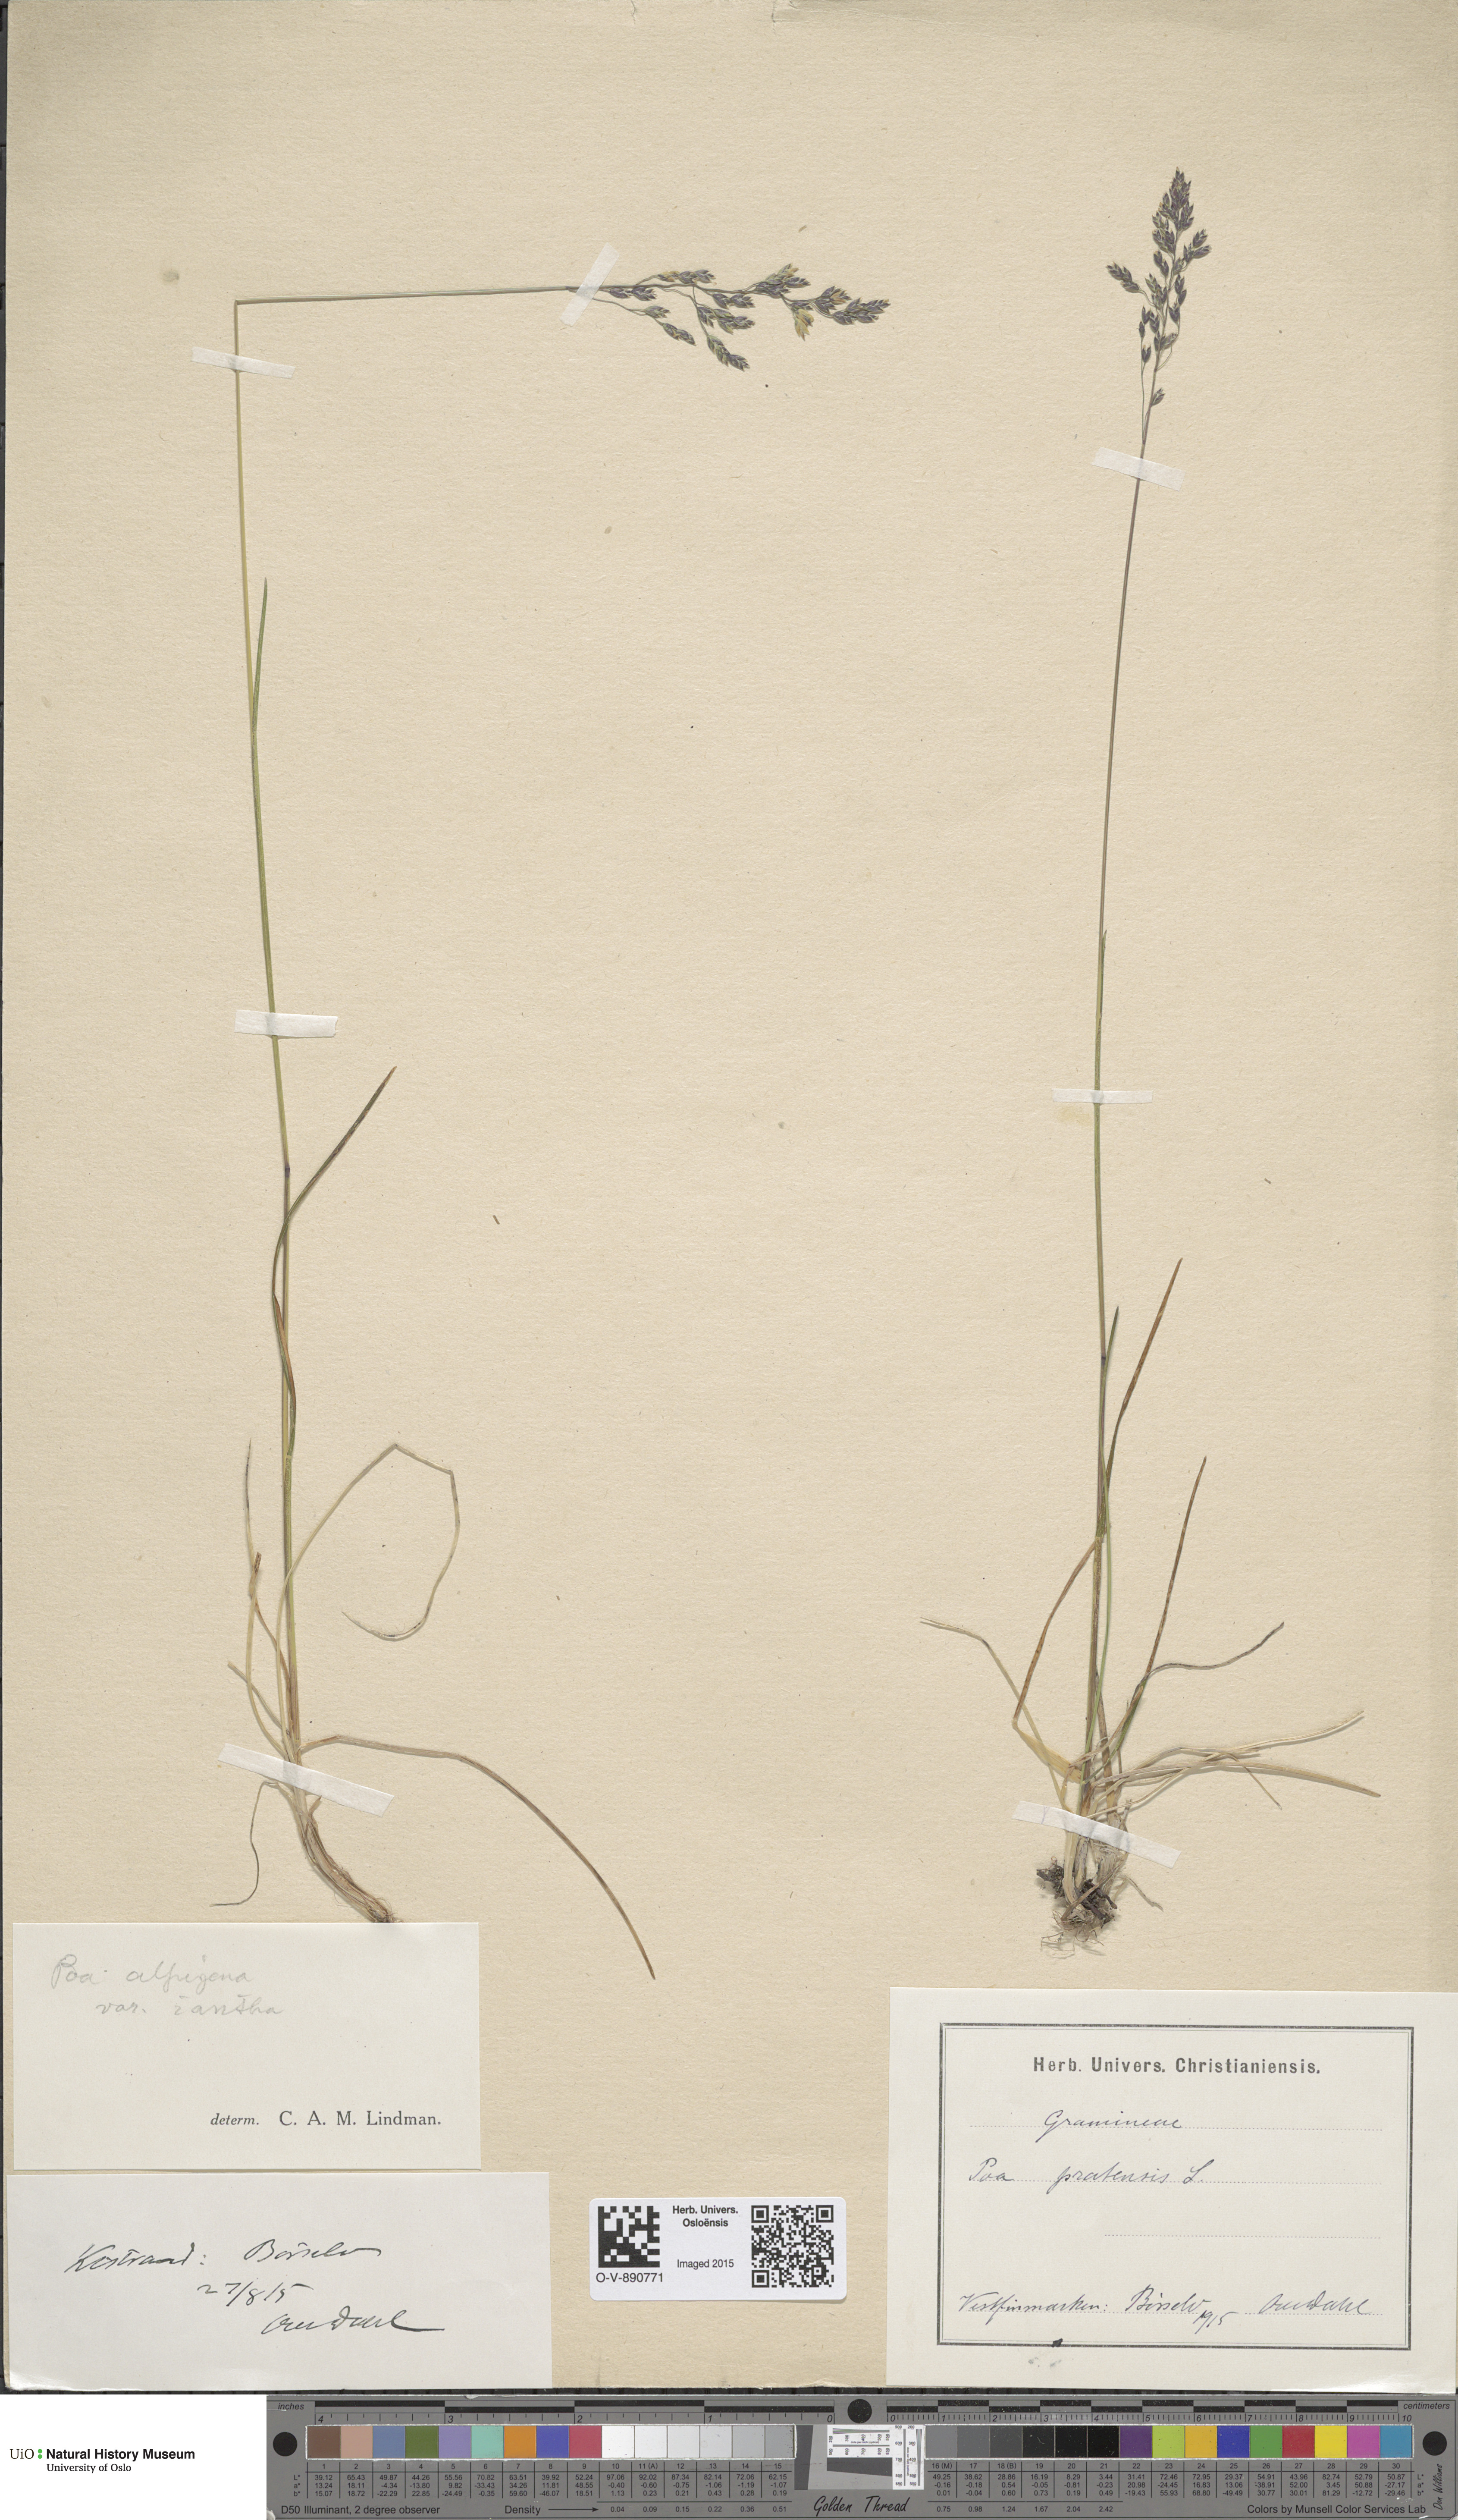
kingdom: Plantae
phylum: Tracheophyta
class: Liliopsida
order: Poales
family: Poaceae
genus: Poa
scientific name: Poa alpigena
